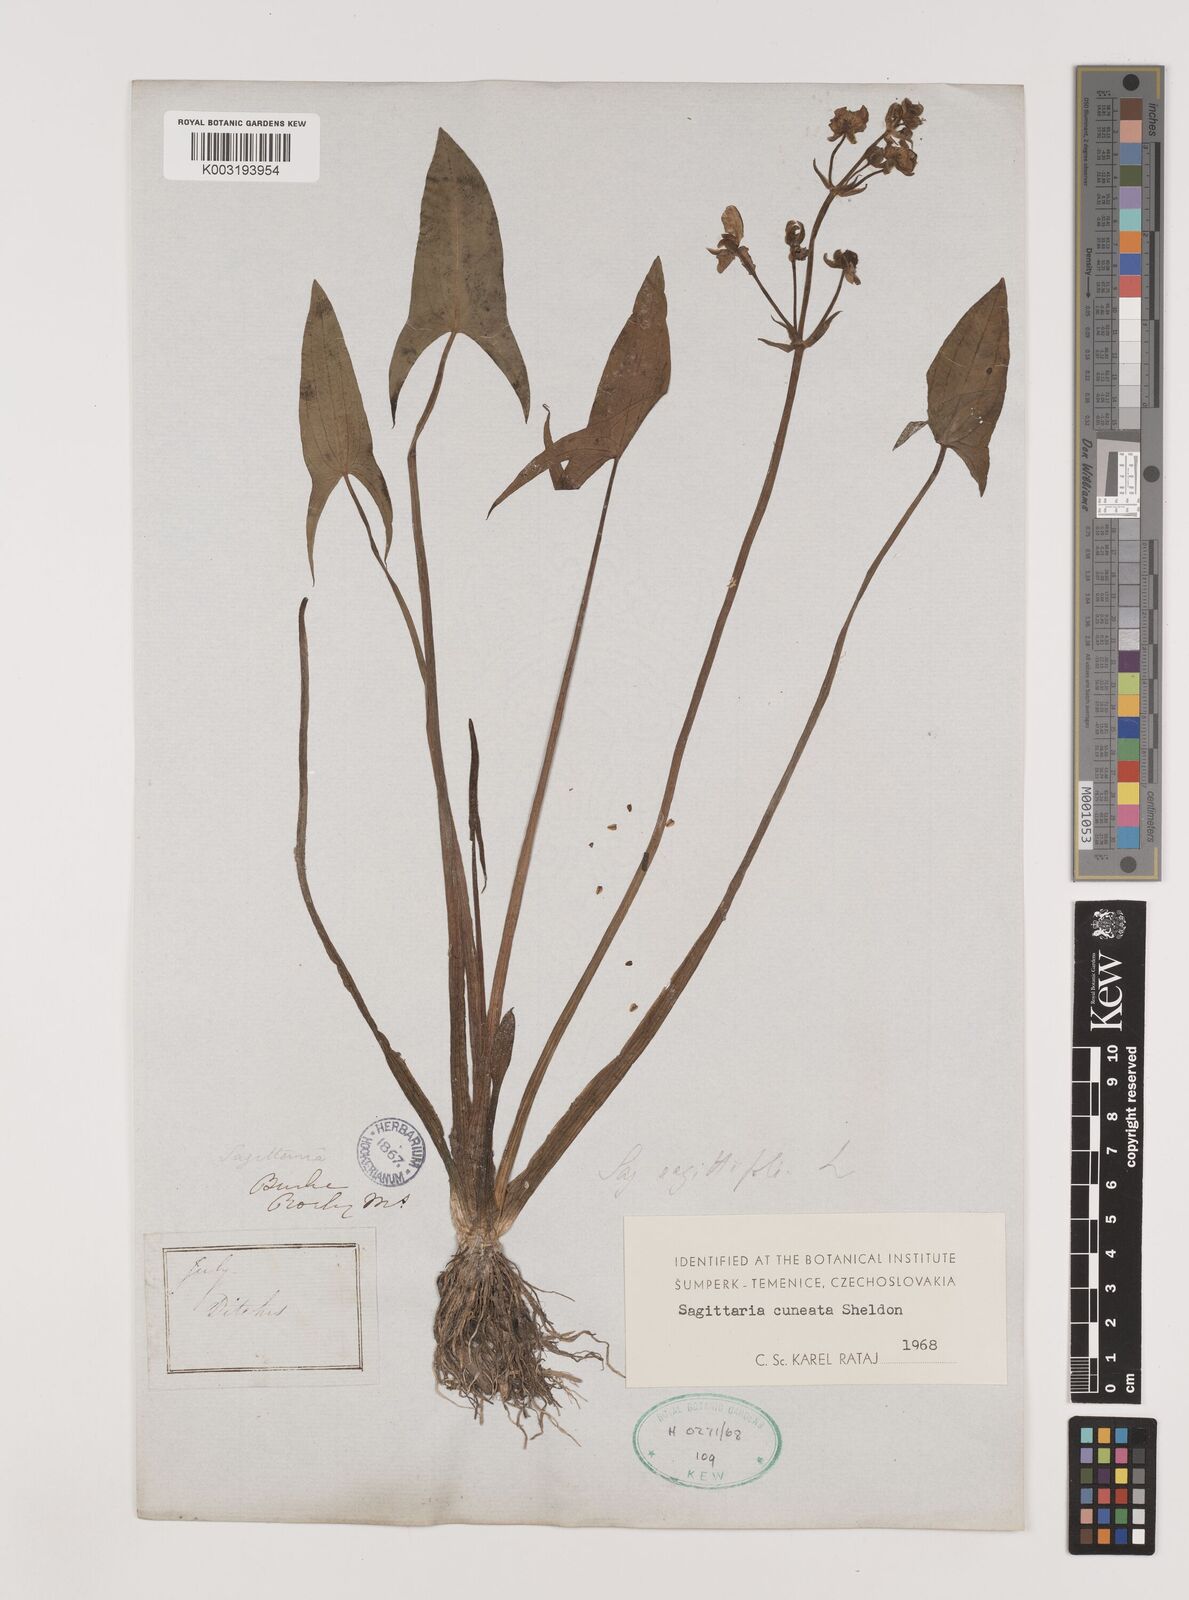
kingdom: Plantae
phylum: Tracheophyta
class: Liliopsida
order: Alismatales
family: Alismataceae
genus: Sagittaria
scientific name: Sagittaria cuneata
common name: Northern arrowhead
